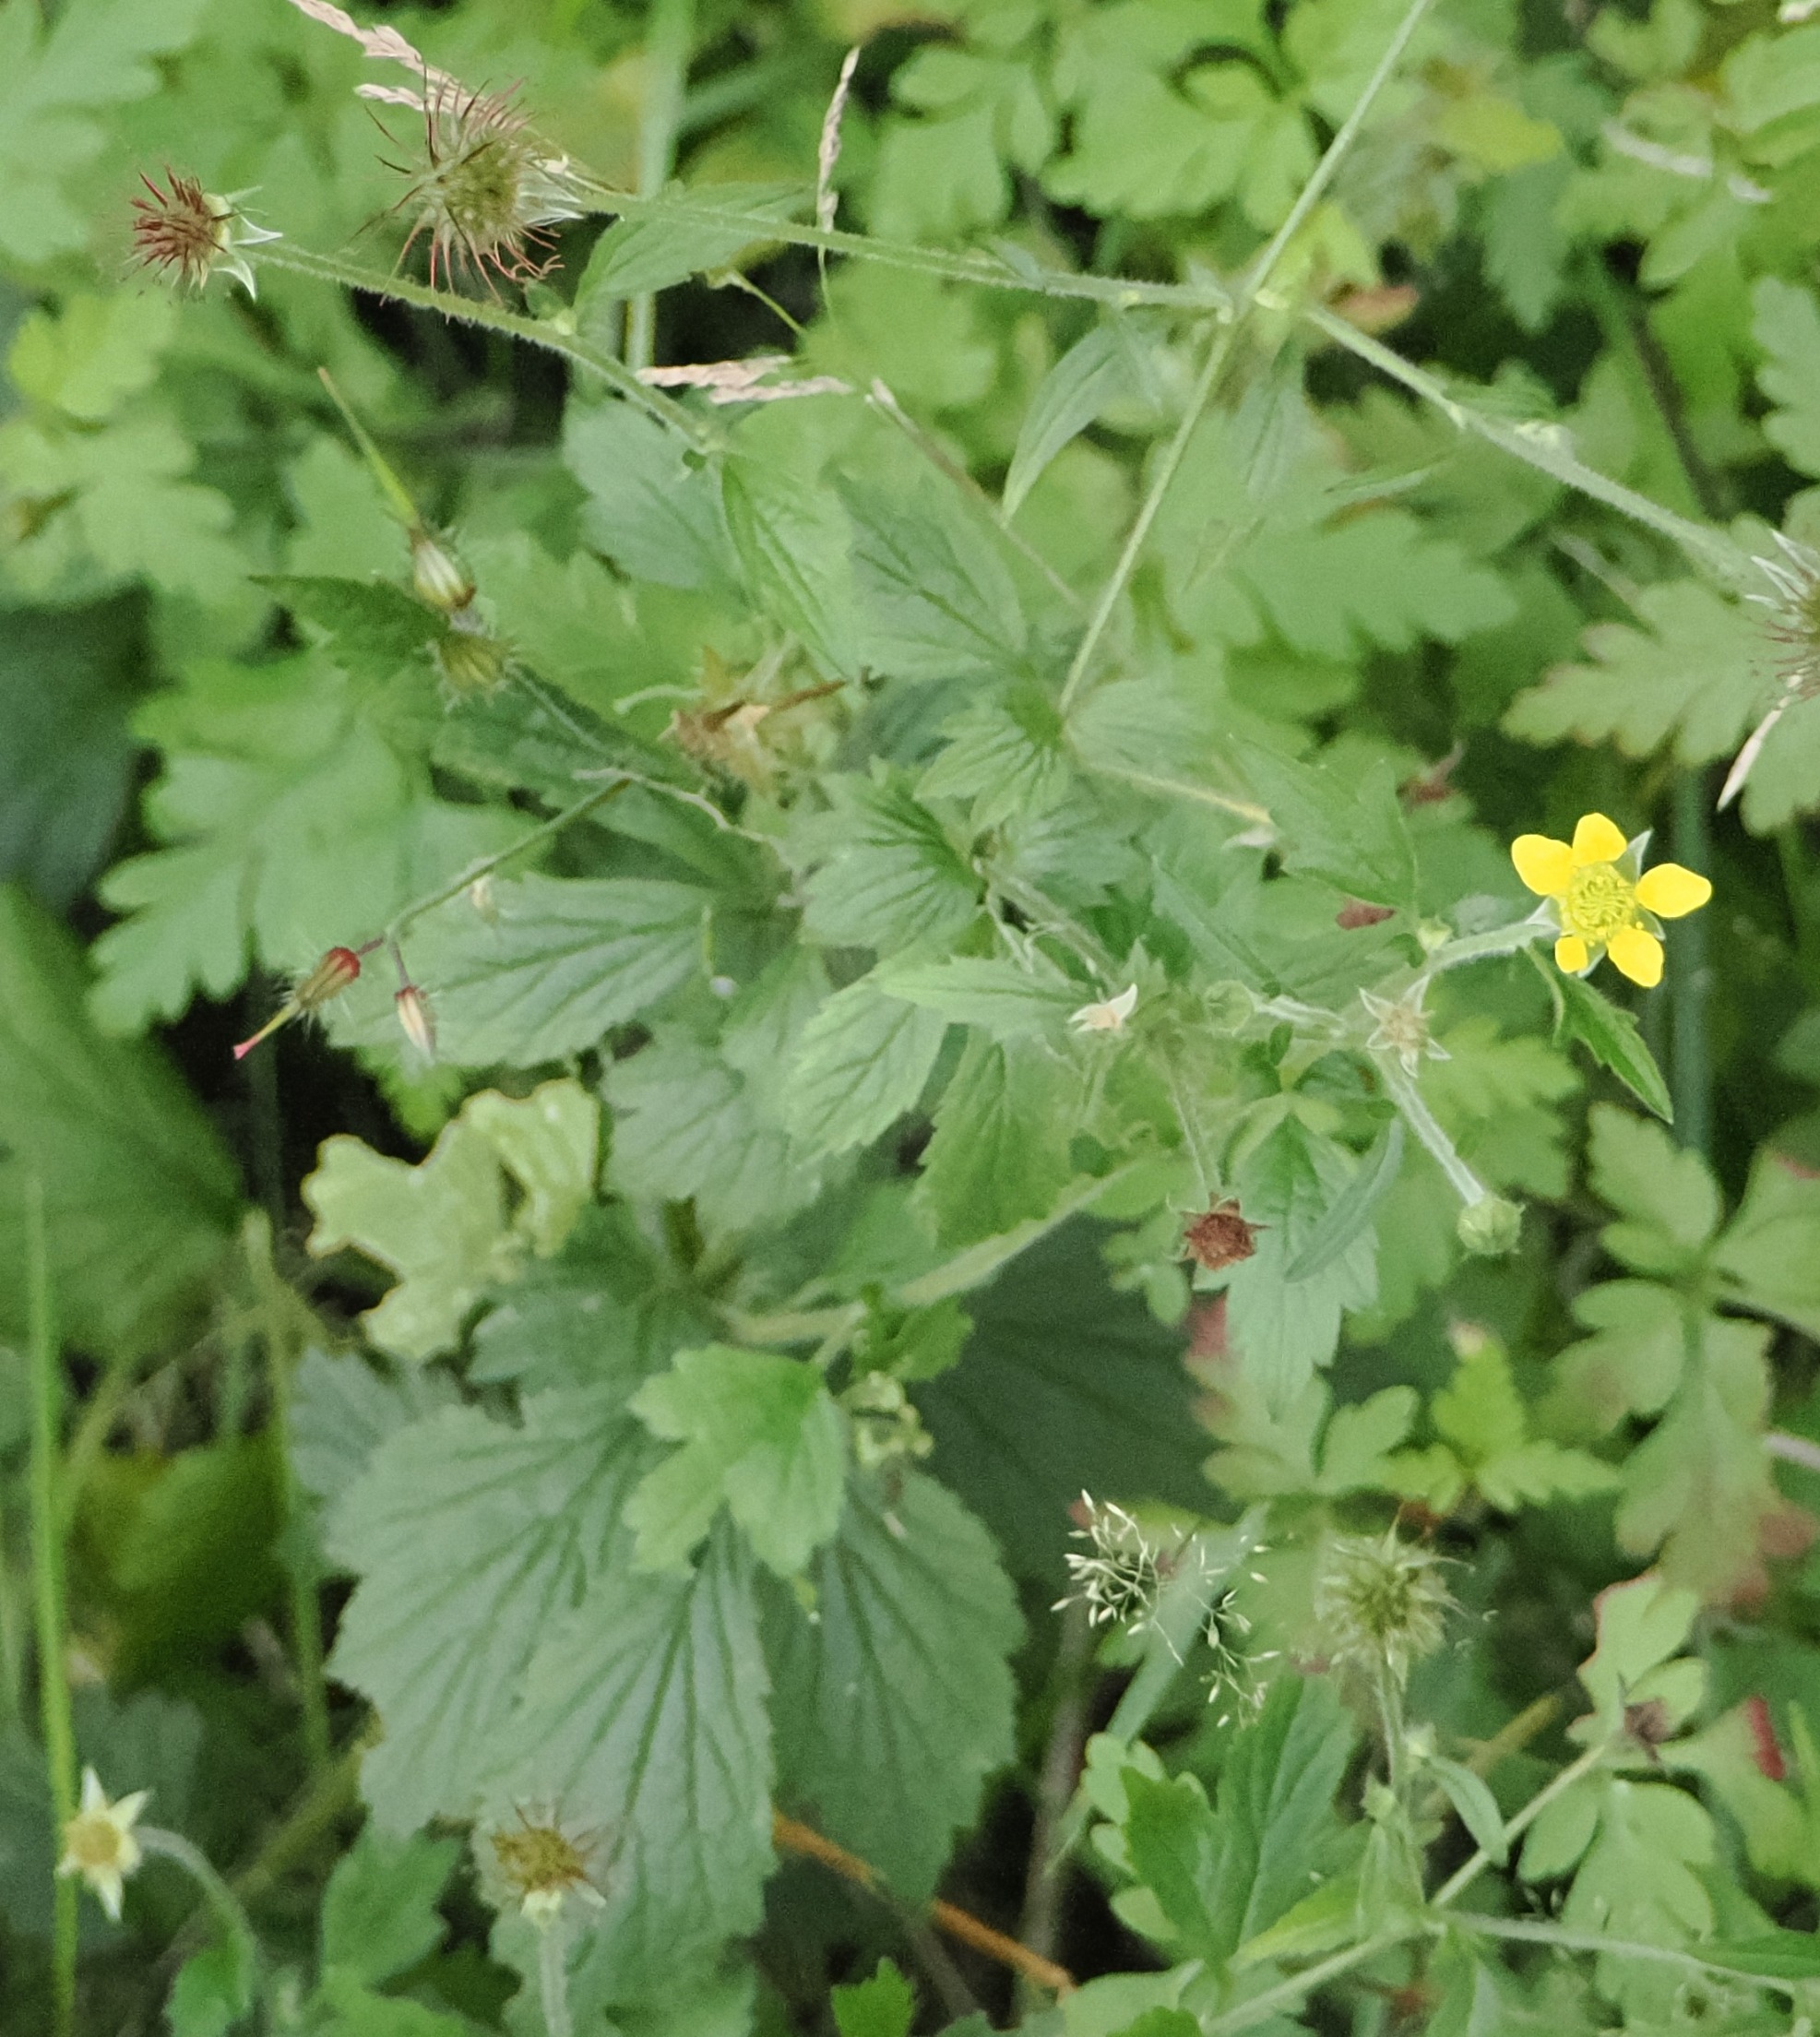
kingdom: Plantae
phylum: Tracheophyta
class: Magnoliopsida
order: Rosales
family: Rosaceae
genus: Geum
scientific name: Geum urbanum
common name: Feber-nellikerod
